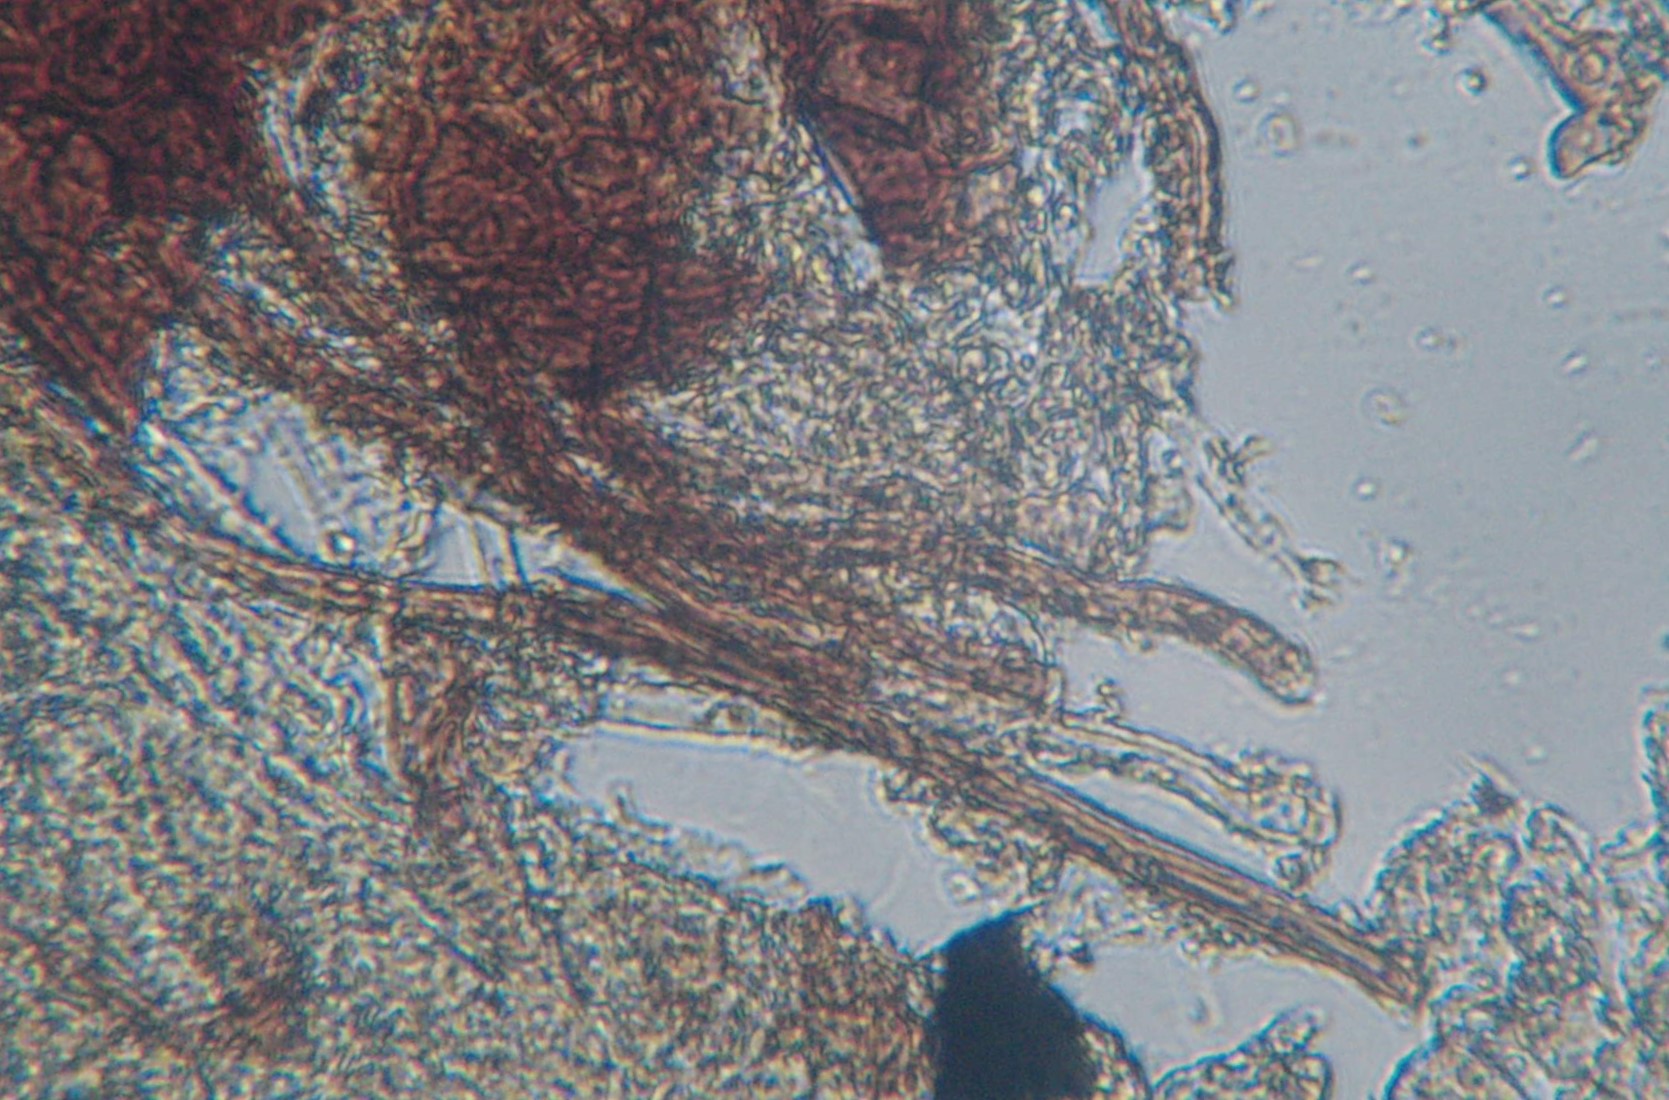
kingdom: Fungi
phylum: Ascomycota
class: Leotiomycetes
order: Helotiales
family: Erysiphaceae
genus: Erysiphe
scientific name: Erysiphe aquilegiae
